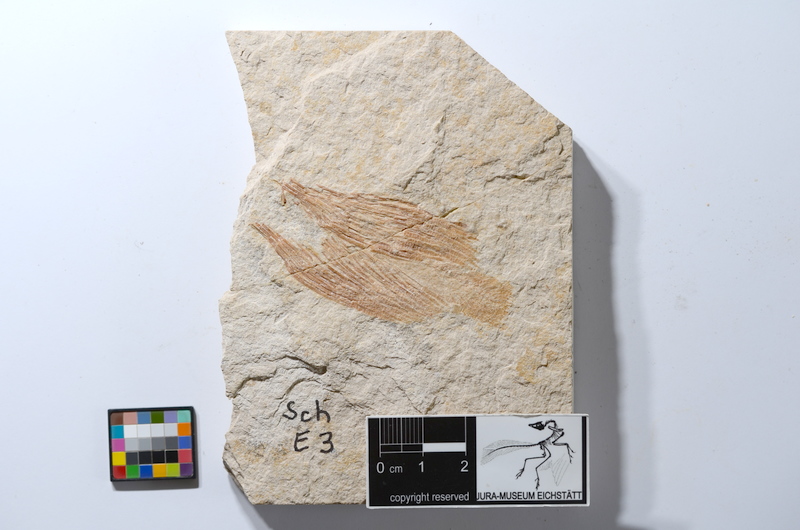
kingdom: Animalia
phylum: Chordata
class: Coelacanthi
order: Coelacanthiformes
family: Coelacanthidae
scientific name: Coelacanthidae
